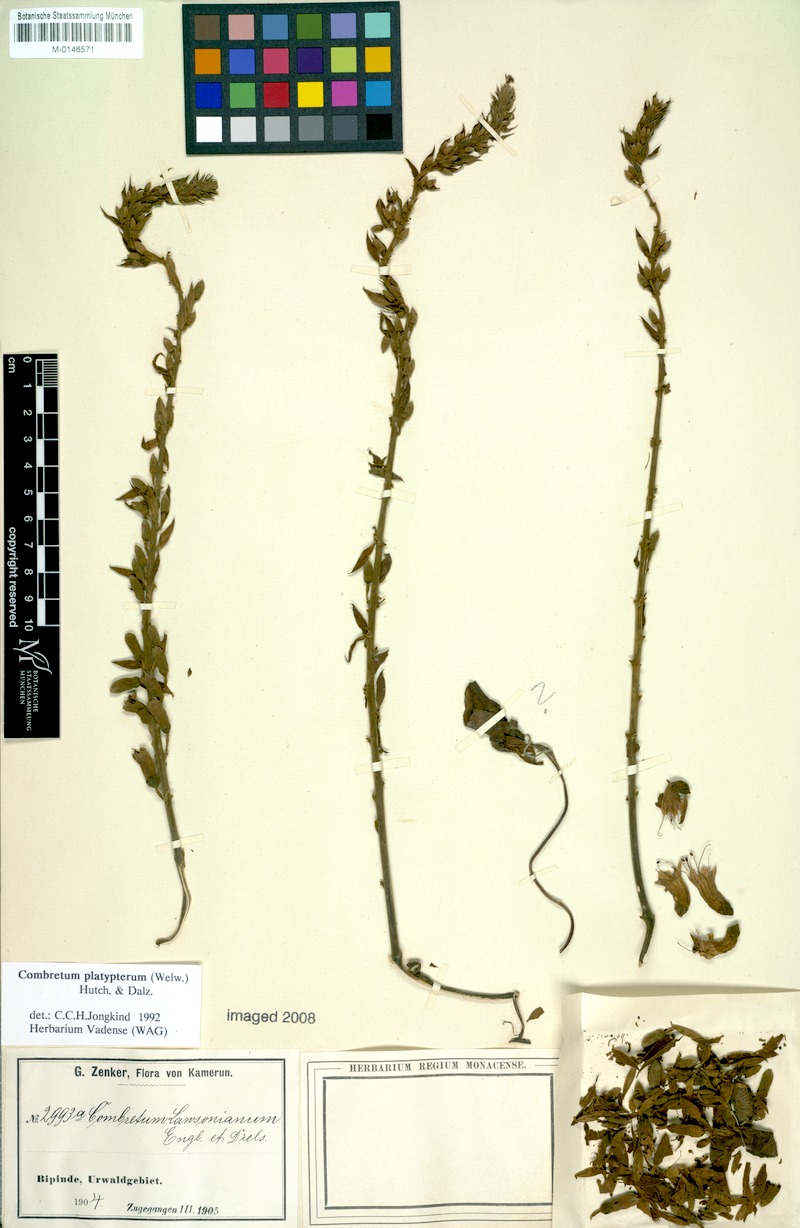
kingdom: Plantae
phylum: Tracheophyta
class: Magnoliopsida
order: Myrtales
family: Combretaceae
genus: Combretum
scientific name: Combretum platypterum
